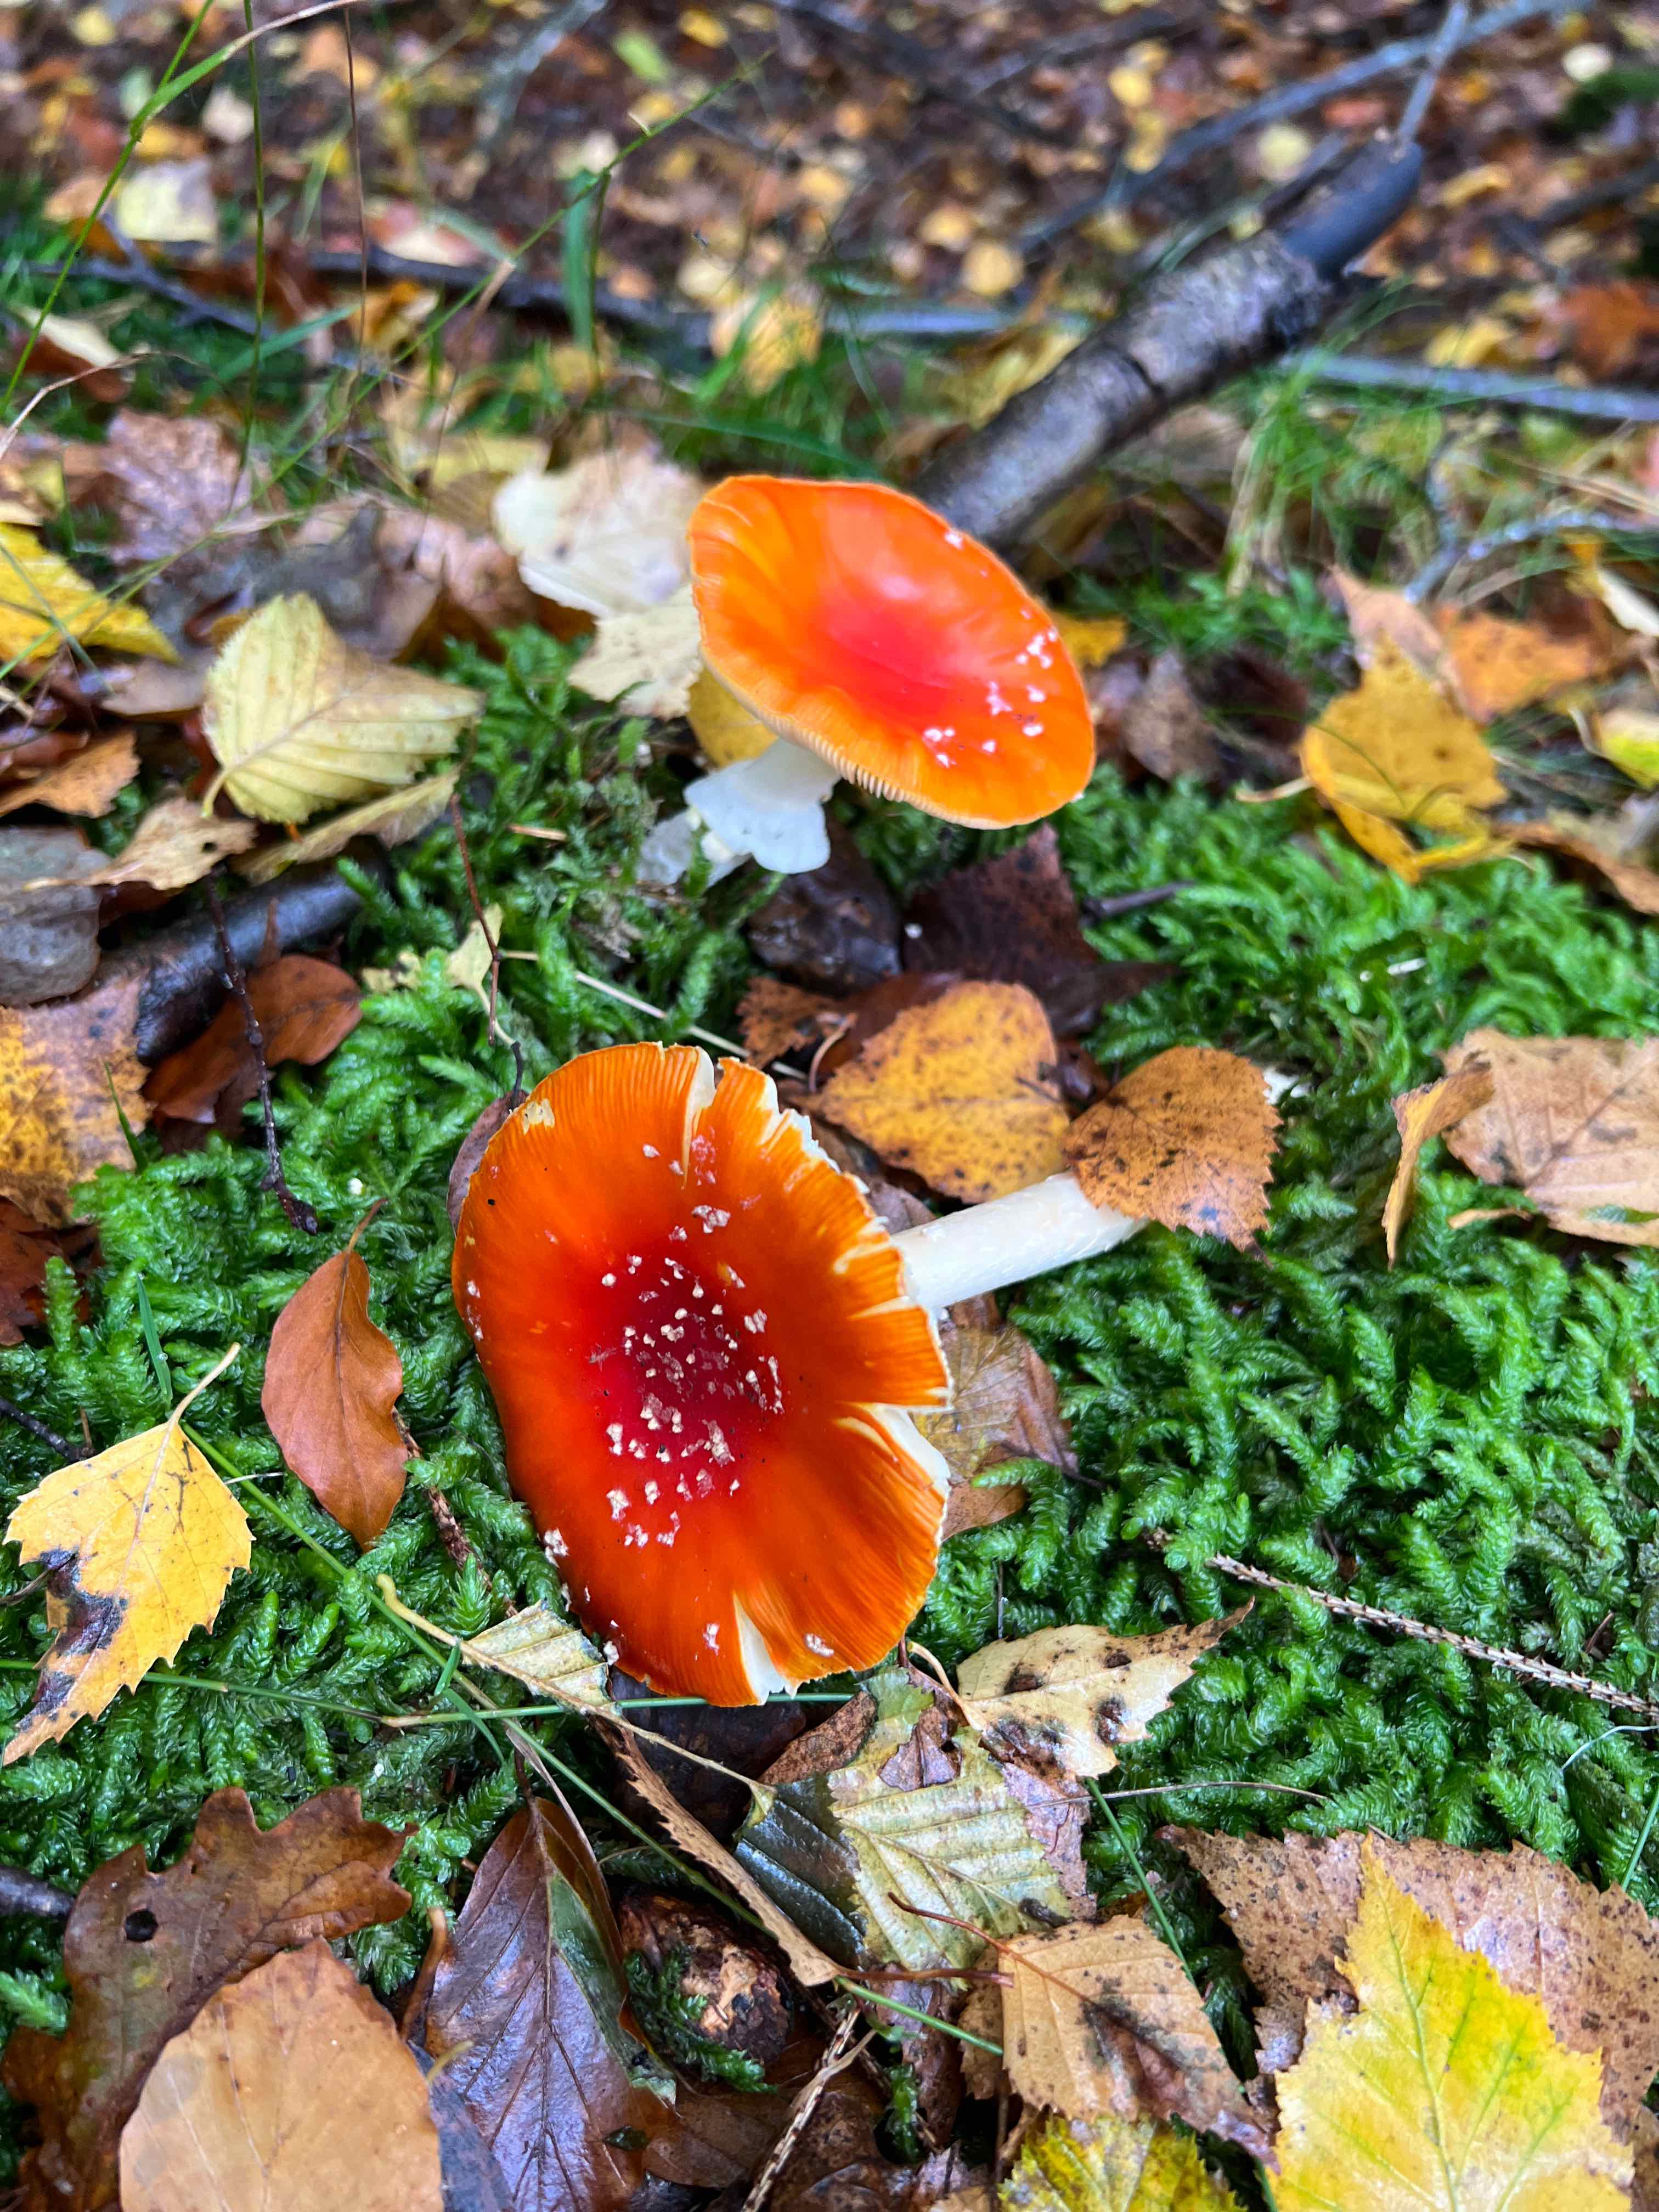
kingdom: Fungi
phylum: Basidiomycota
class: Agaricomycetes
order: Agaricales
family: Amanitaceae
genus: Amanita
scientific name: Amanita muscaria
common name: rød fluesvamp
